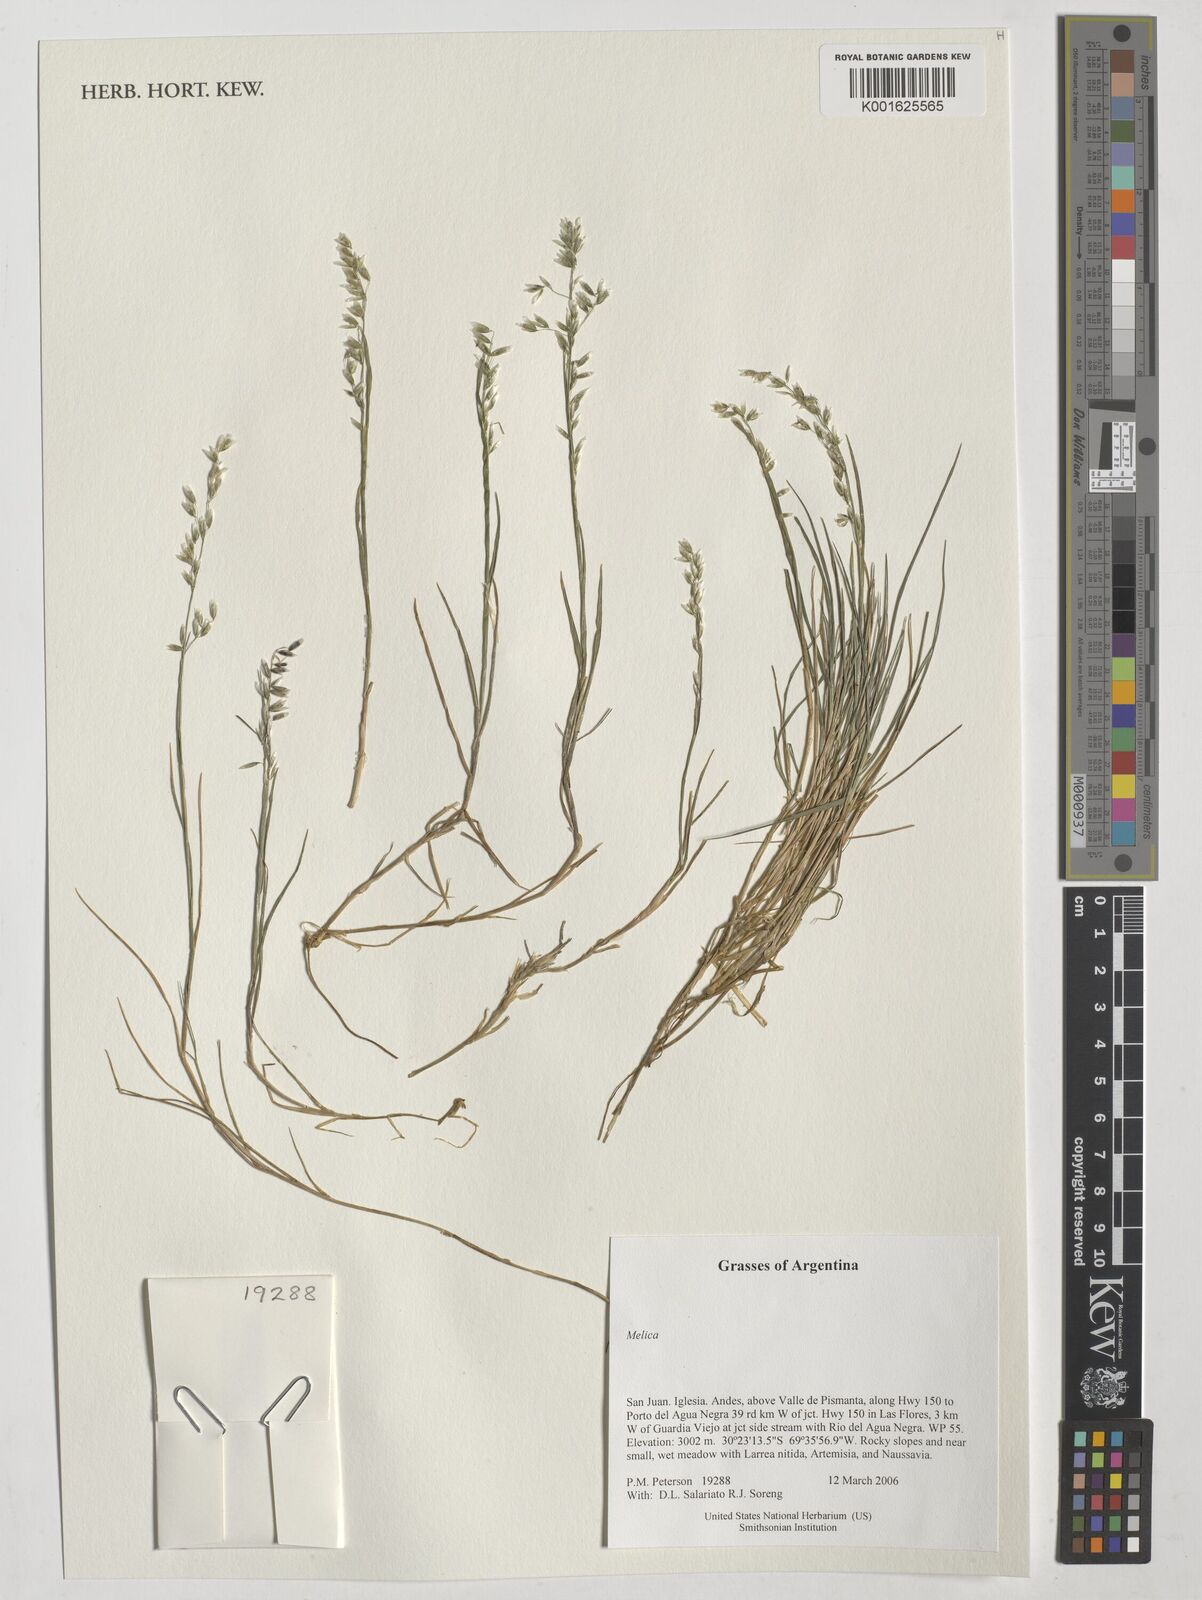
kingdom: Plantae
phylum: Tracheophyta
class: Liliopsida
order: Poales
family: Poaceae
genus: Melica
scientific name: Melica
